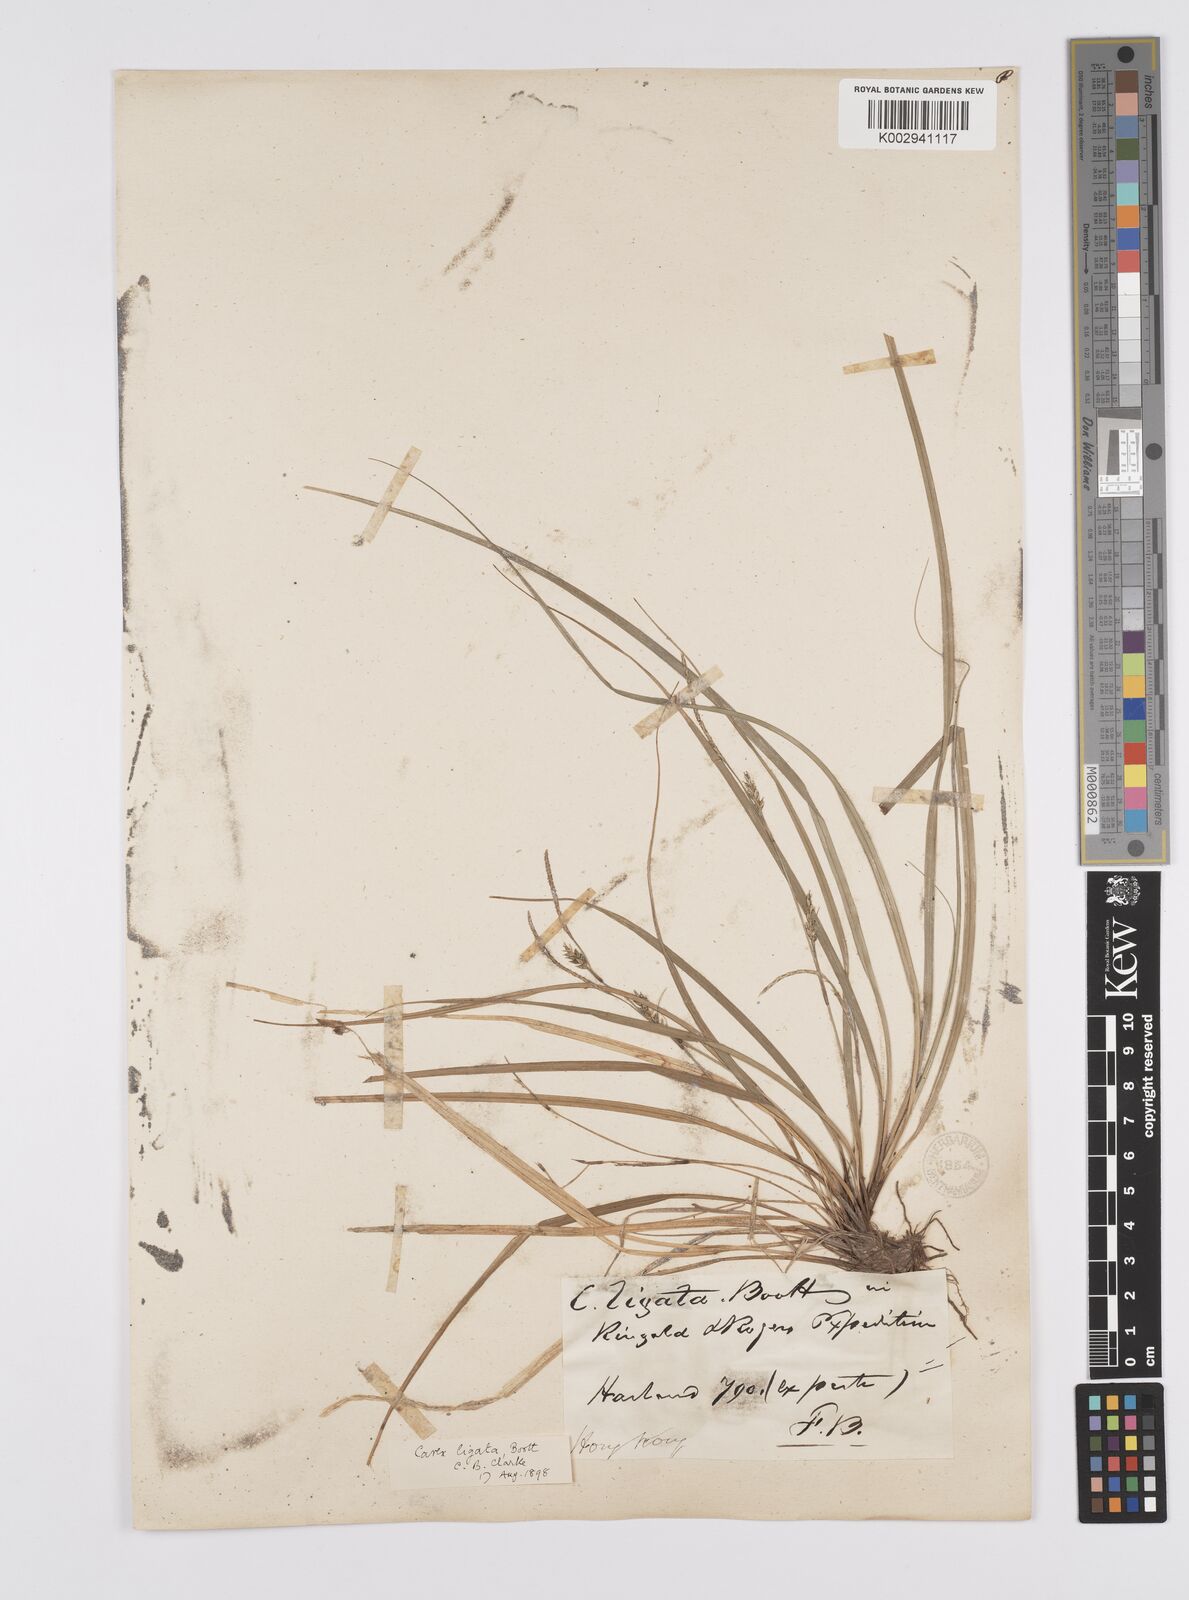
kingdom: Plantae
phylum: Tracheophyta
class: Liliopsida
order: Poales
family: Cyperaceae
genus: Carex
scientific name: Carex ligata
